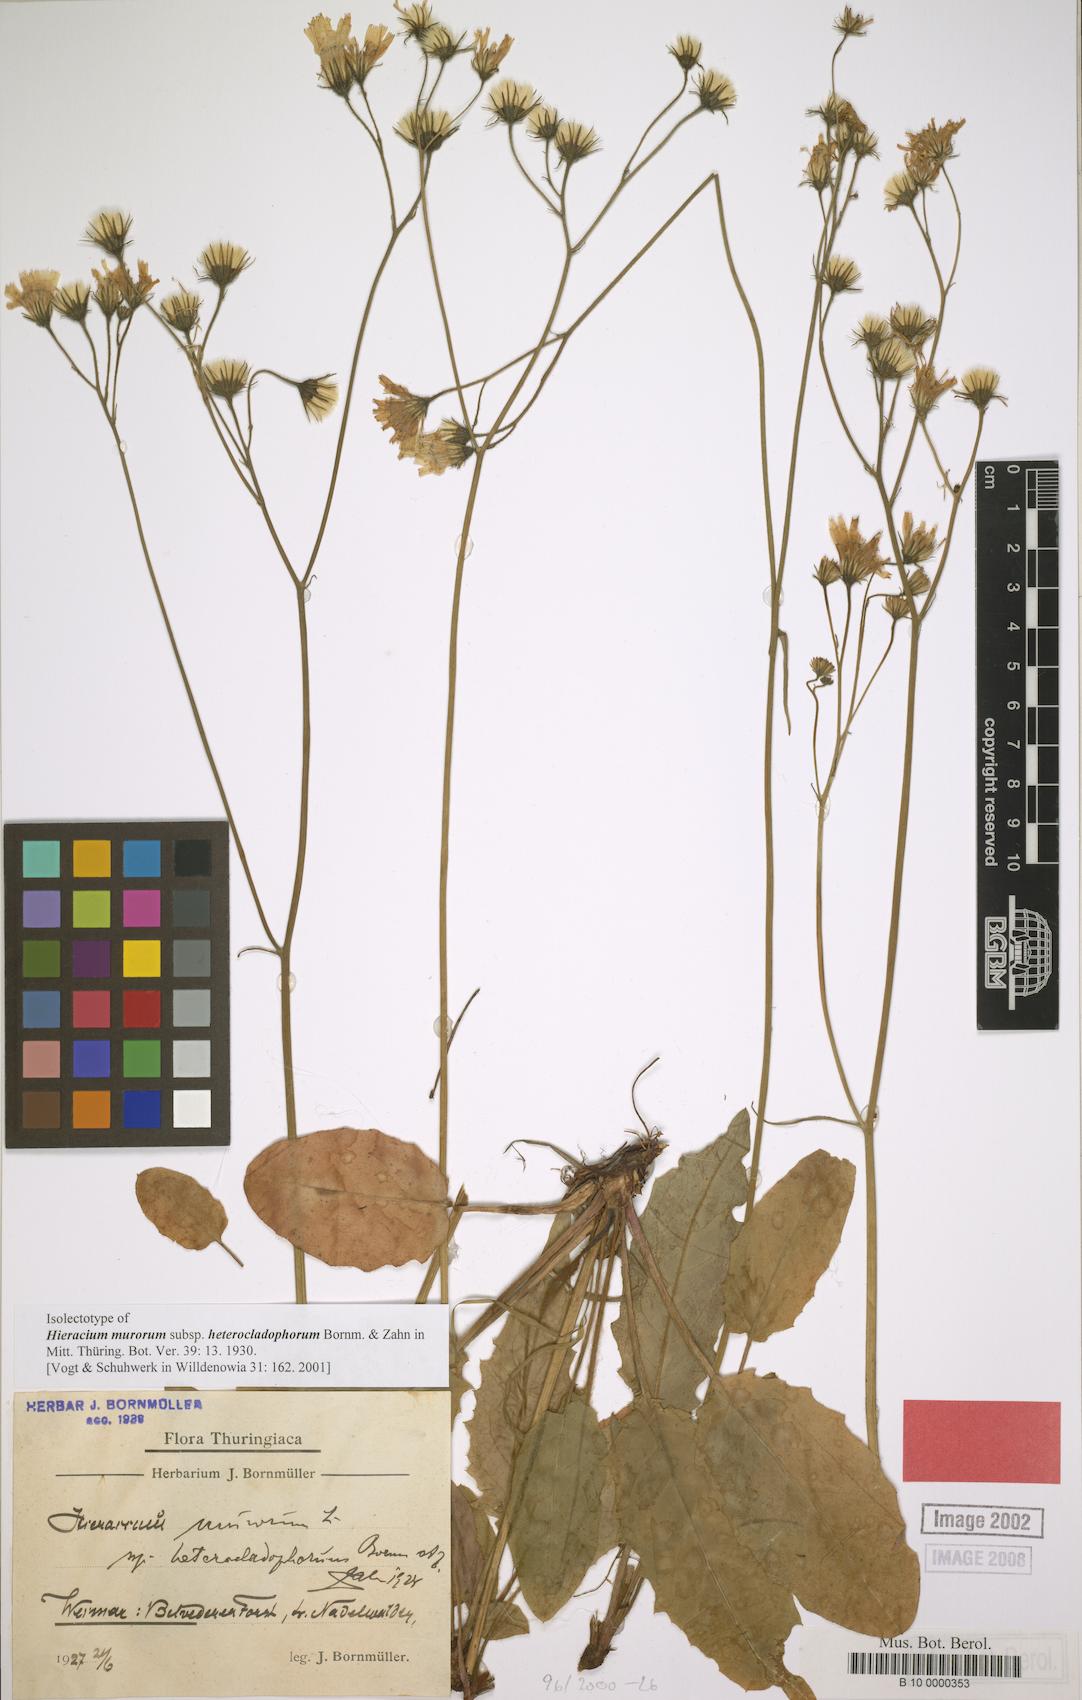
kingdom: Plantae
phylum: Tracheophyta
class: Magnoliopsida
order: Asterales
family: Asteraceae
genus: Hieracium
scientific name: Hieracium murorum
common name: Wall hawkweed
